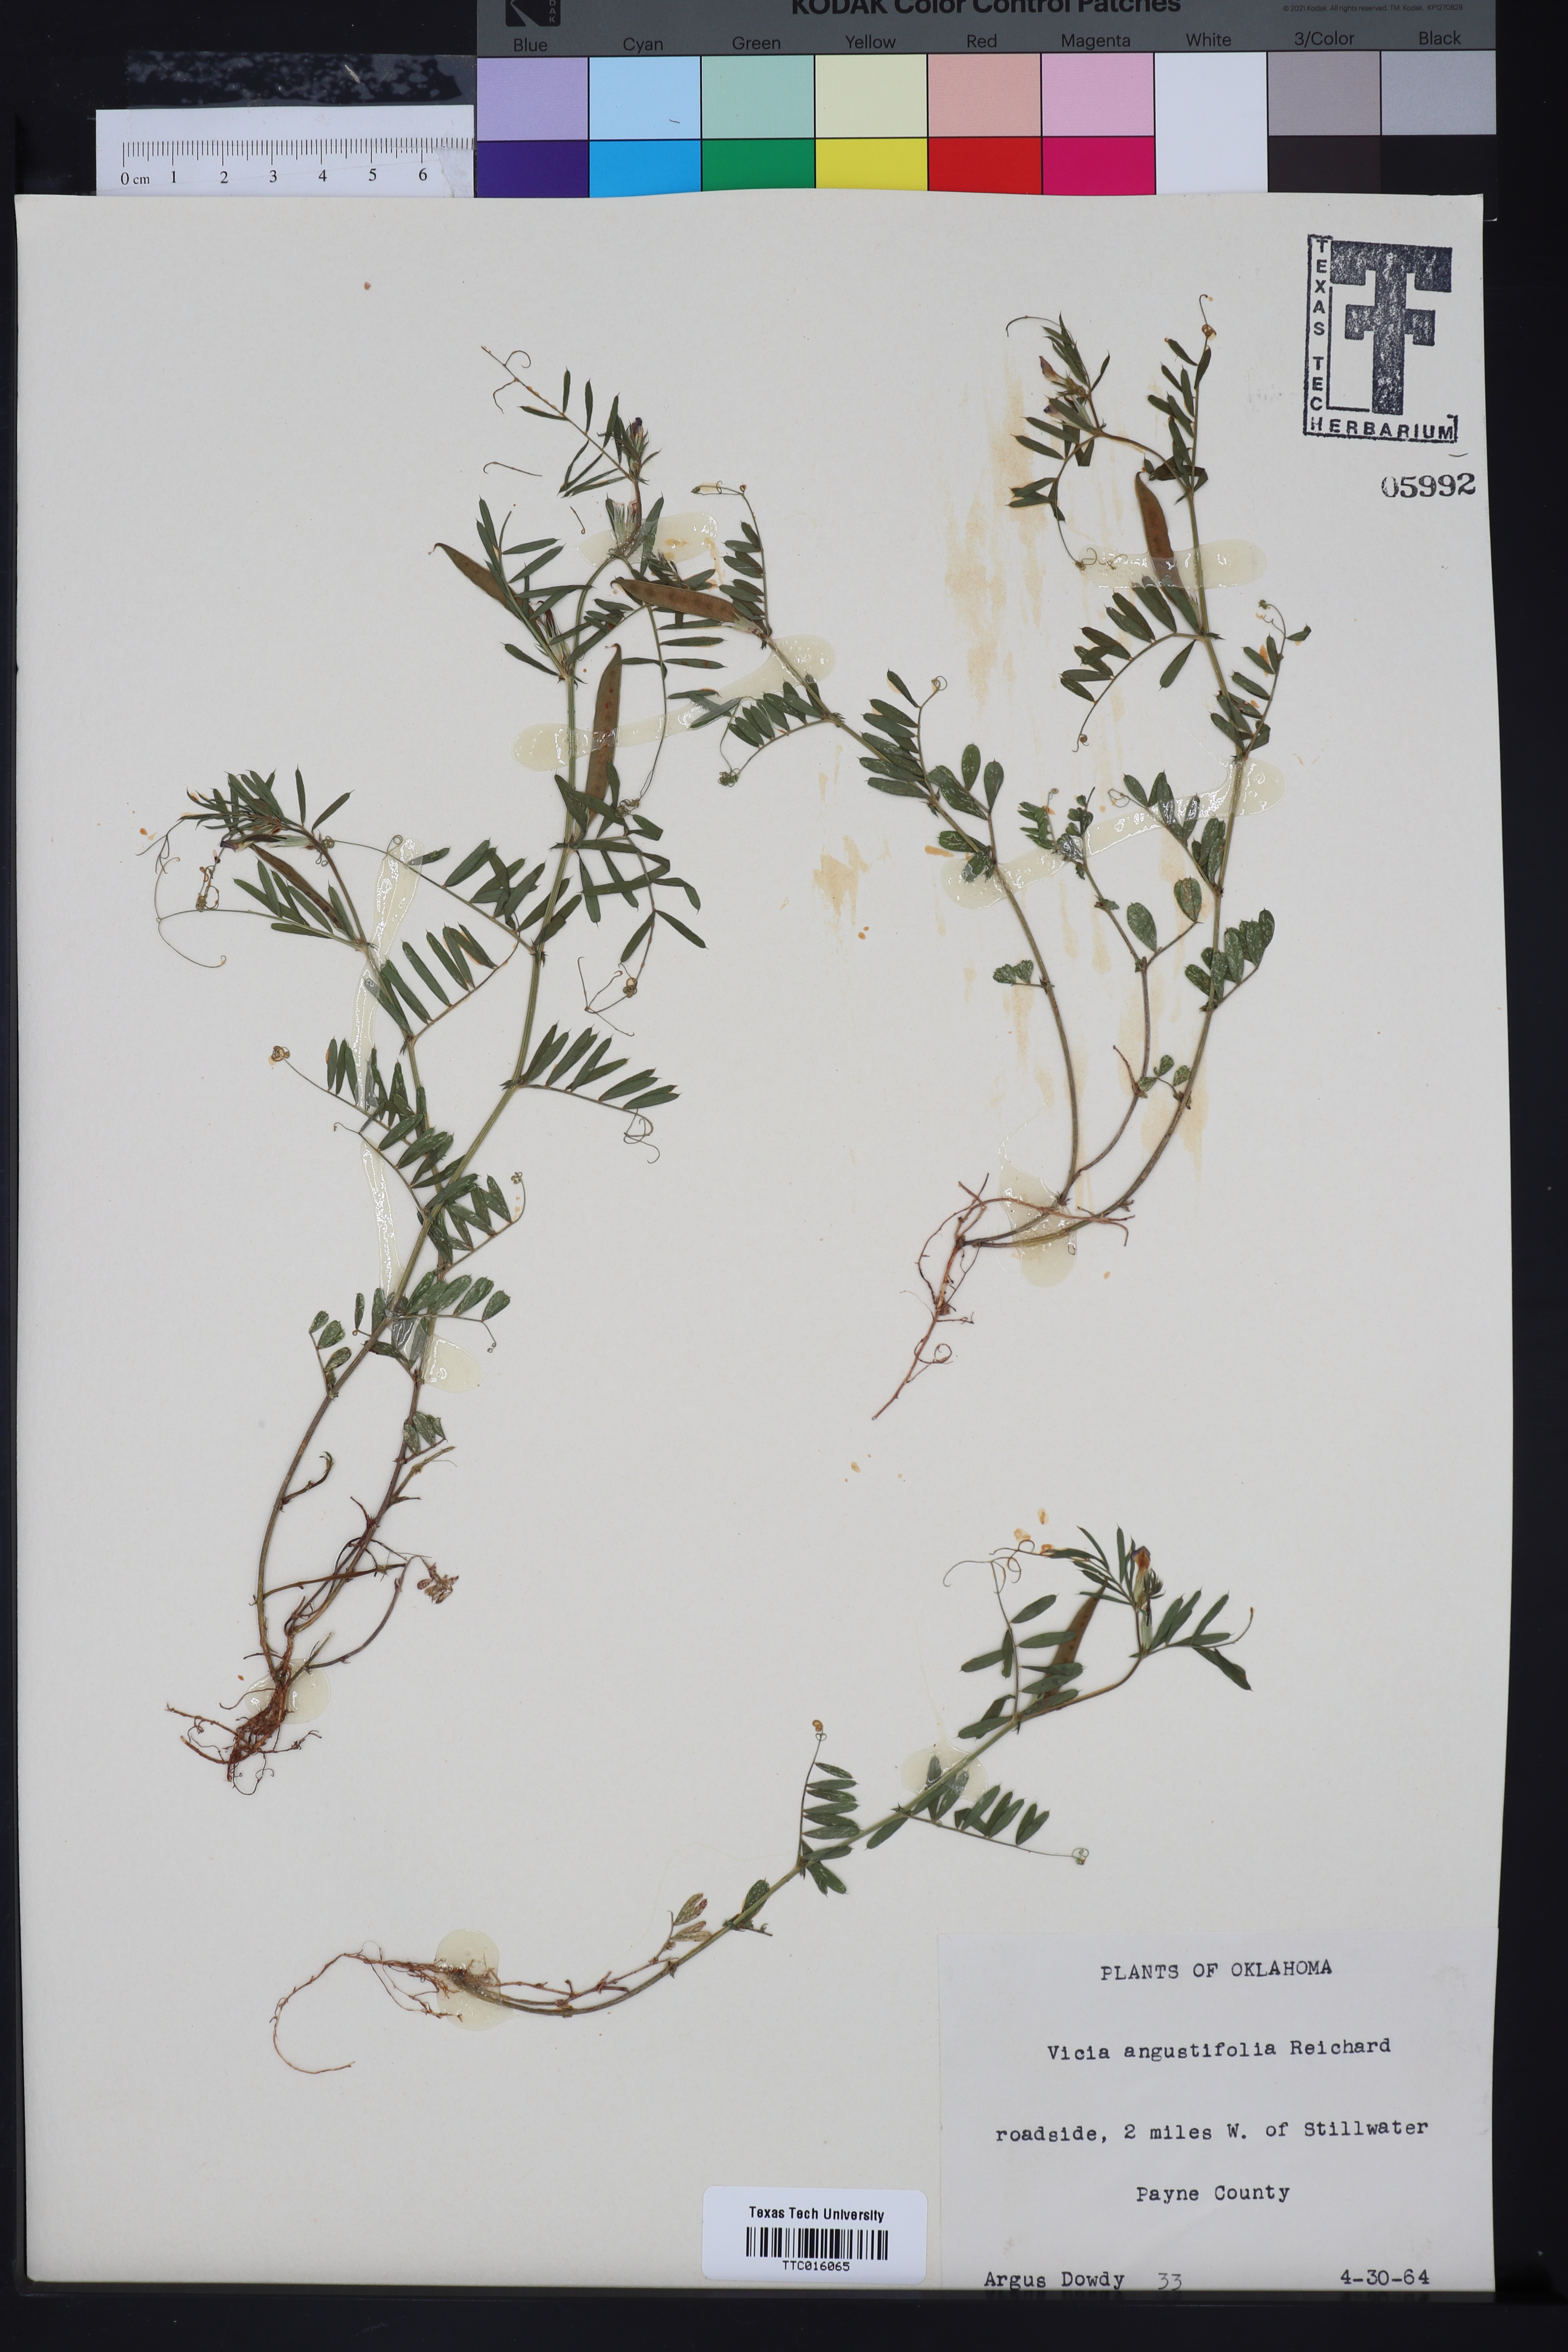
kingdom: Plantae
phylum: Tracheophyta
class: Magnoliopsida
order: Fabales
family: Fabaceae
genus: Vicia
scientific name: Vicia sativa
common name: Garden vetch
